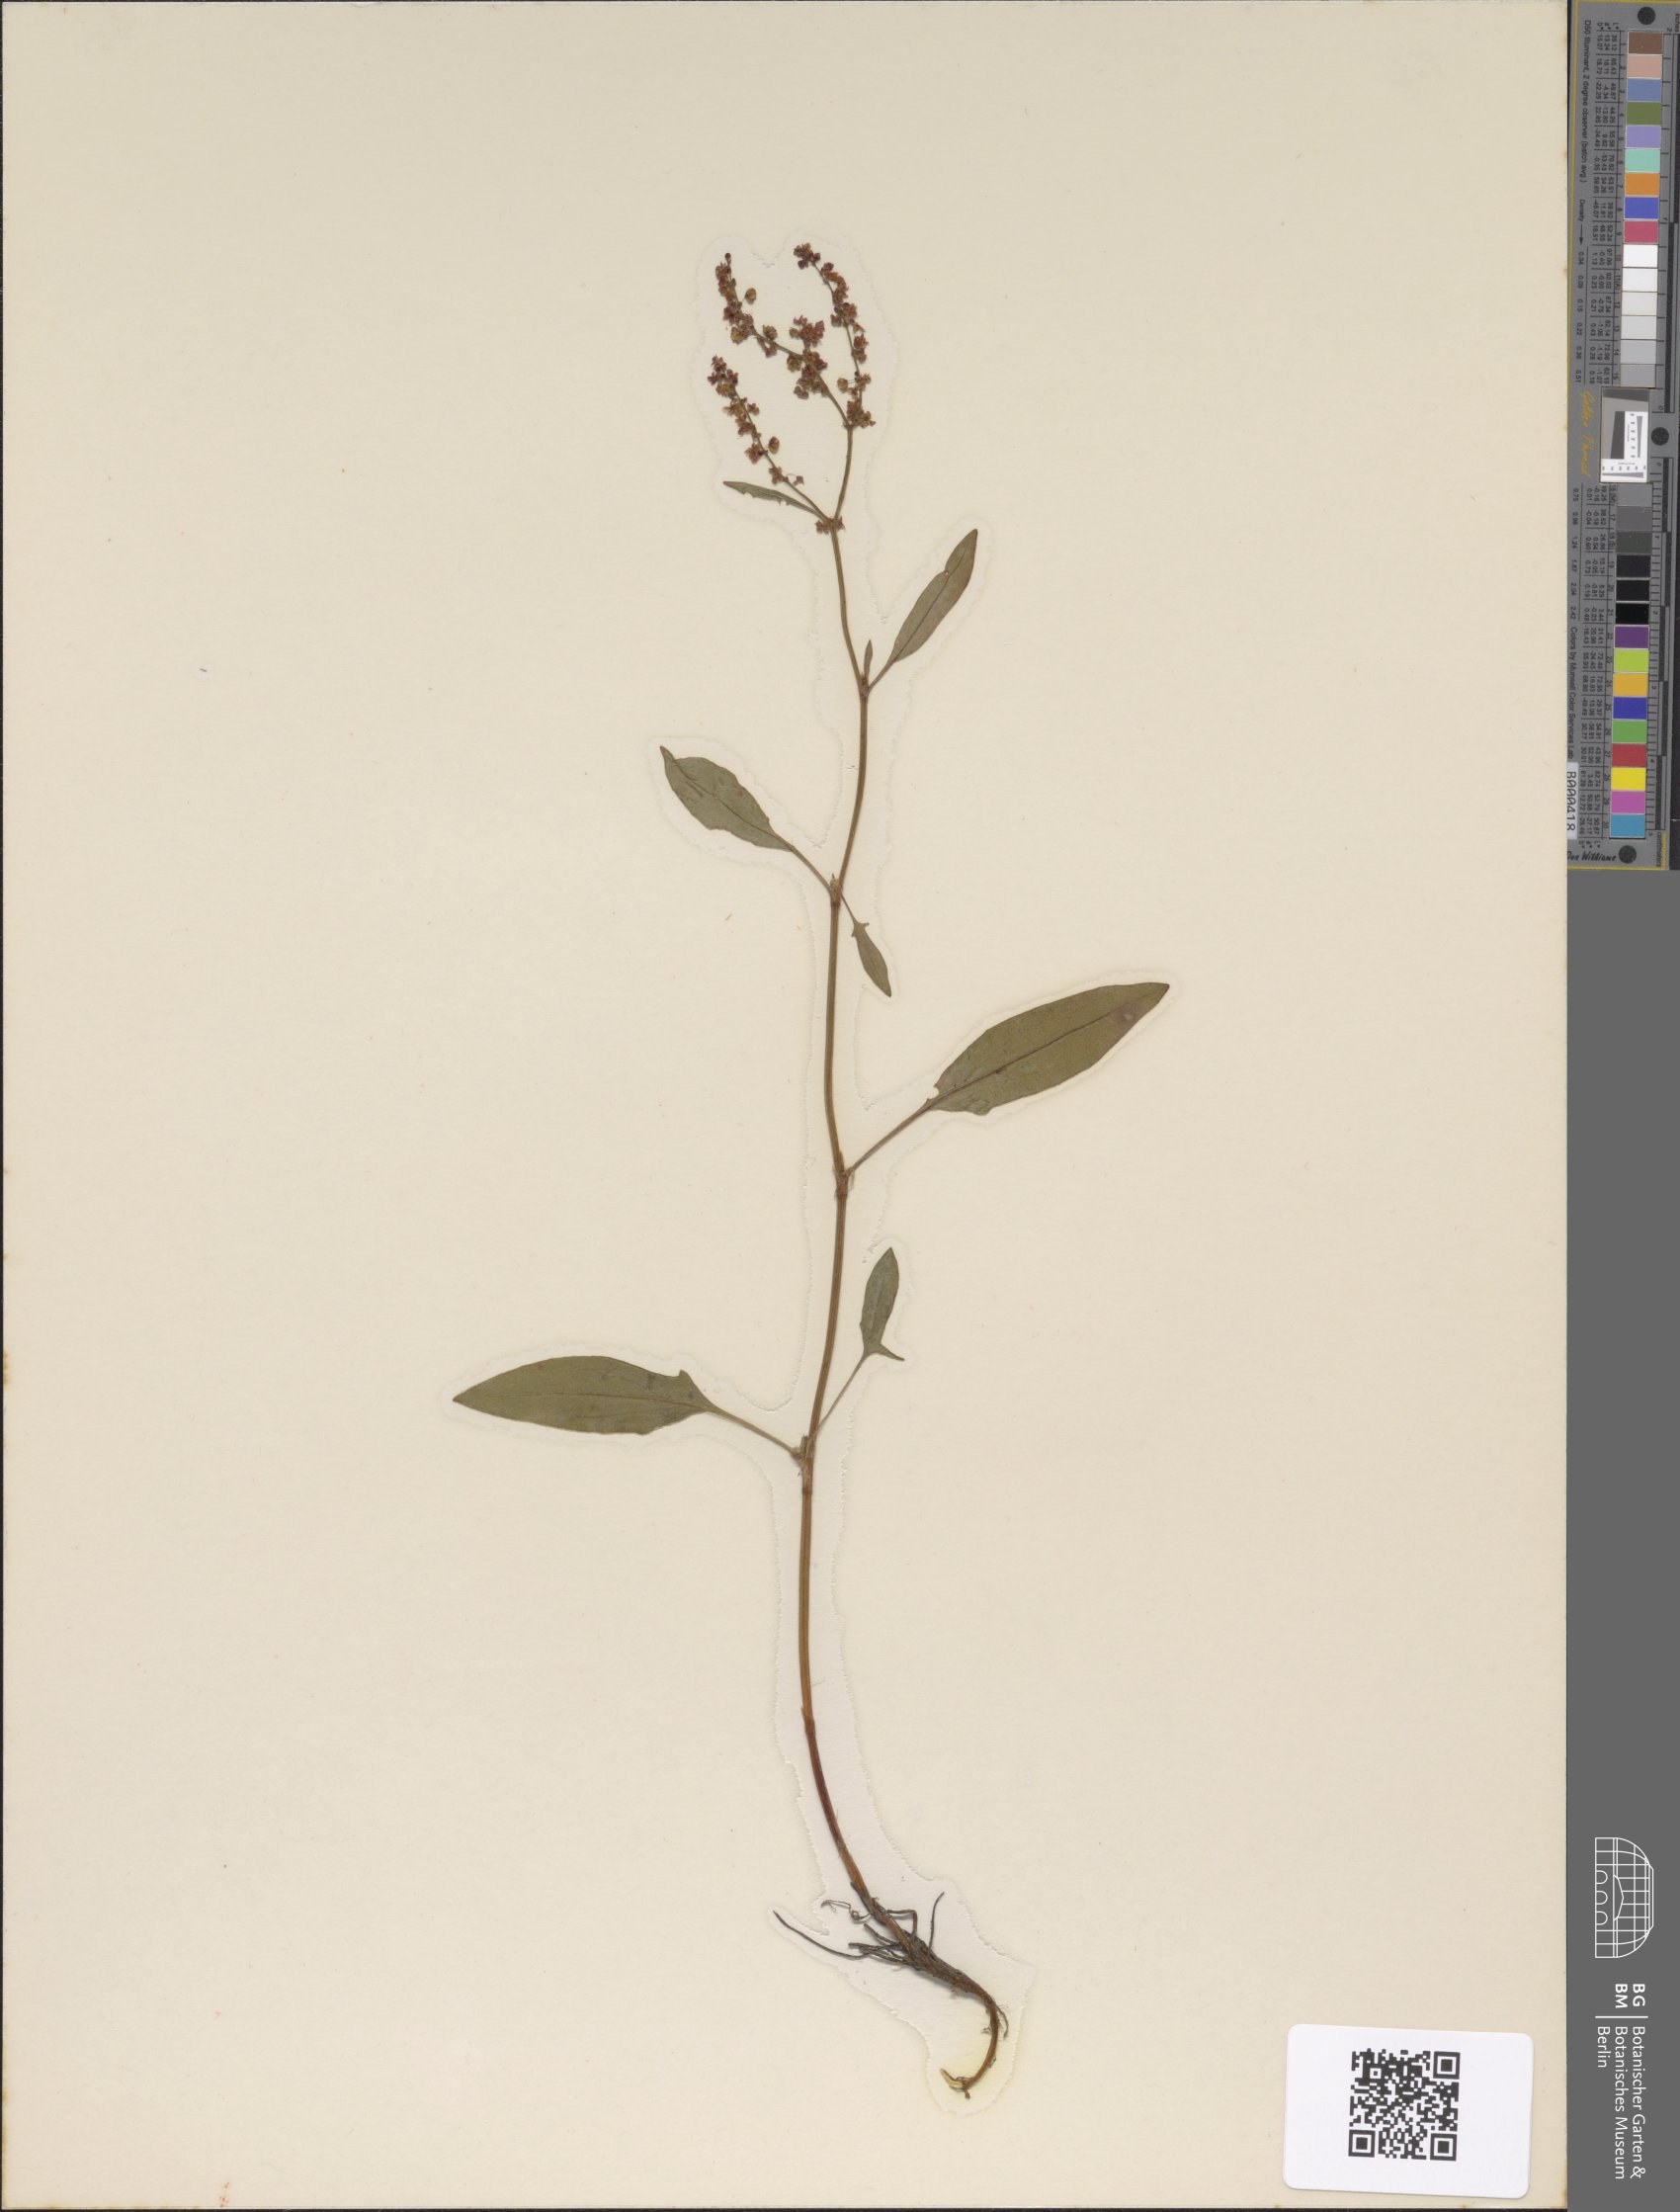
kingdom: Plantae
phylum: Tracheophyta
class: Magnoliopsida
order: Caryophyllales
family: Polygonaceae
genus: Rumex
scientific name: Rumex acetosella
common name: Common sheep sorrel
